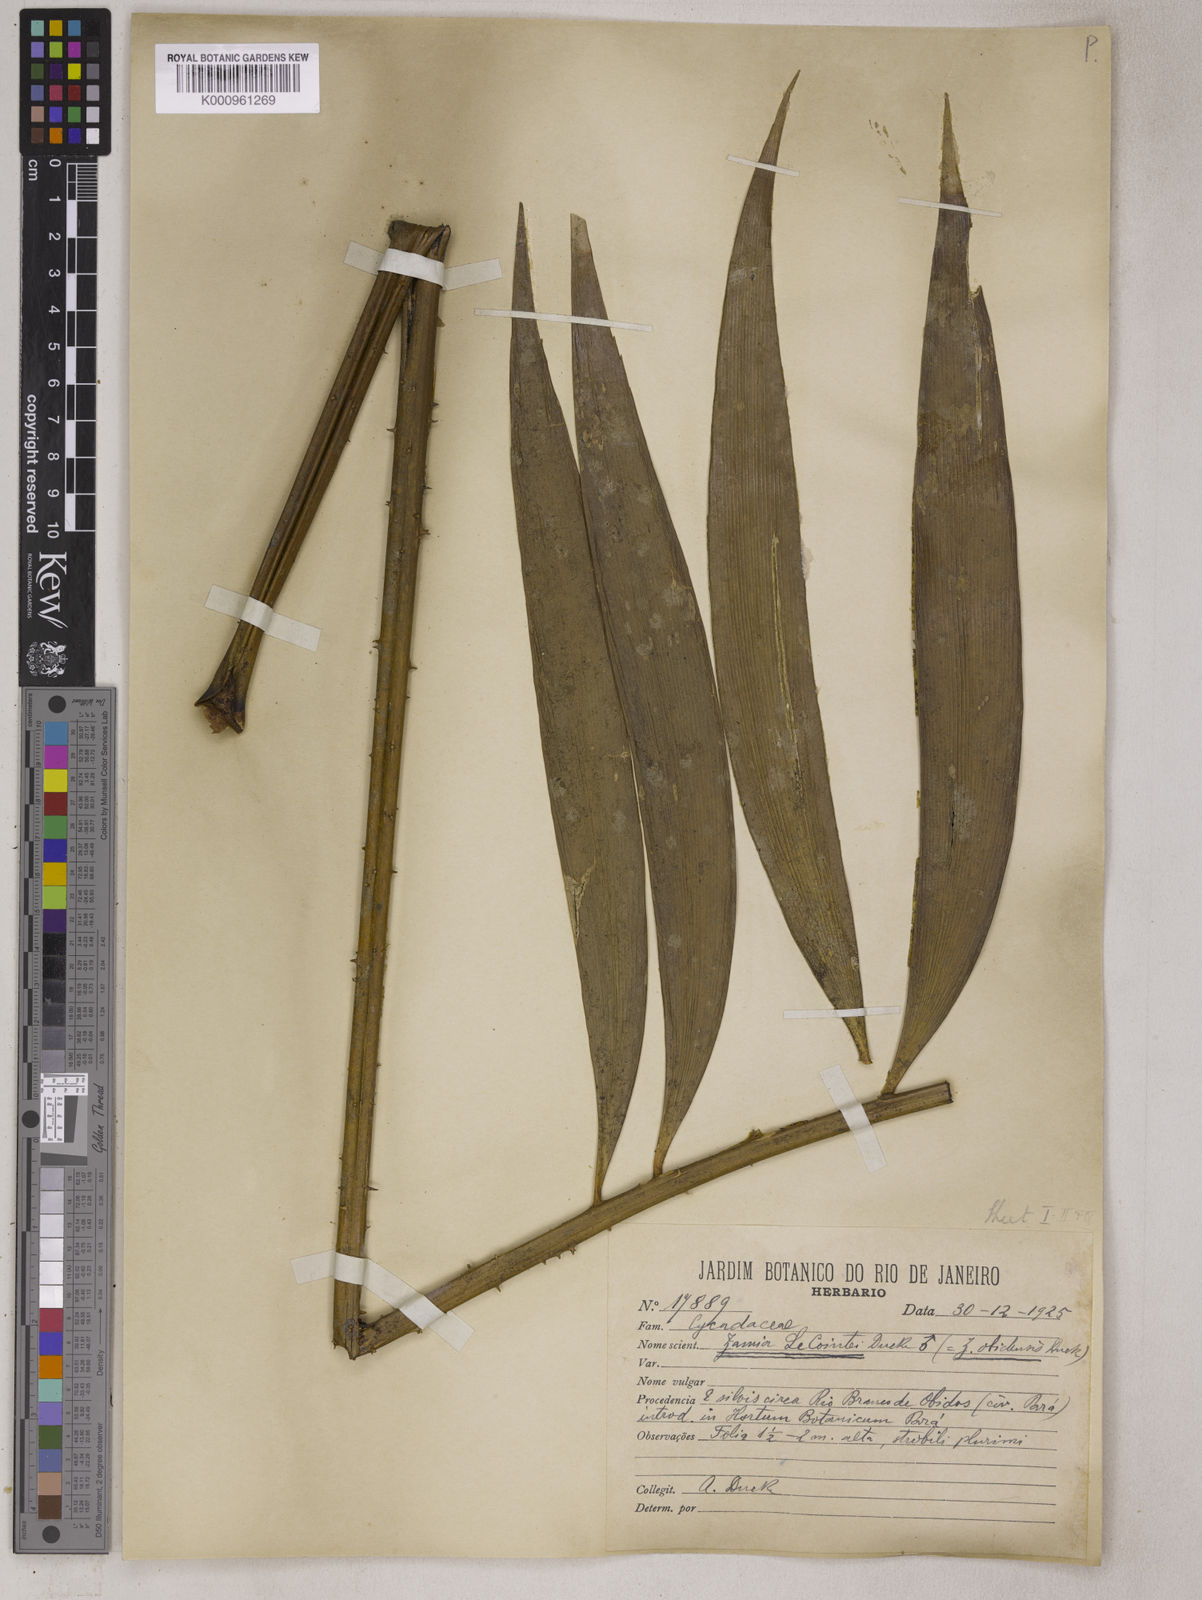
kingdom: Plantae
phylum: Tracheophyta
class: Cycadopsida
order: Cycadales
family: Zamiaceae
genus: Zamia
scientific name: Zamia lecointei
